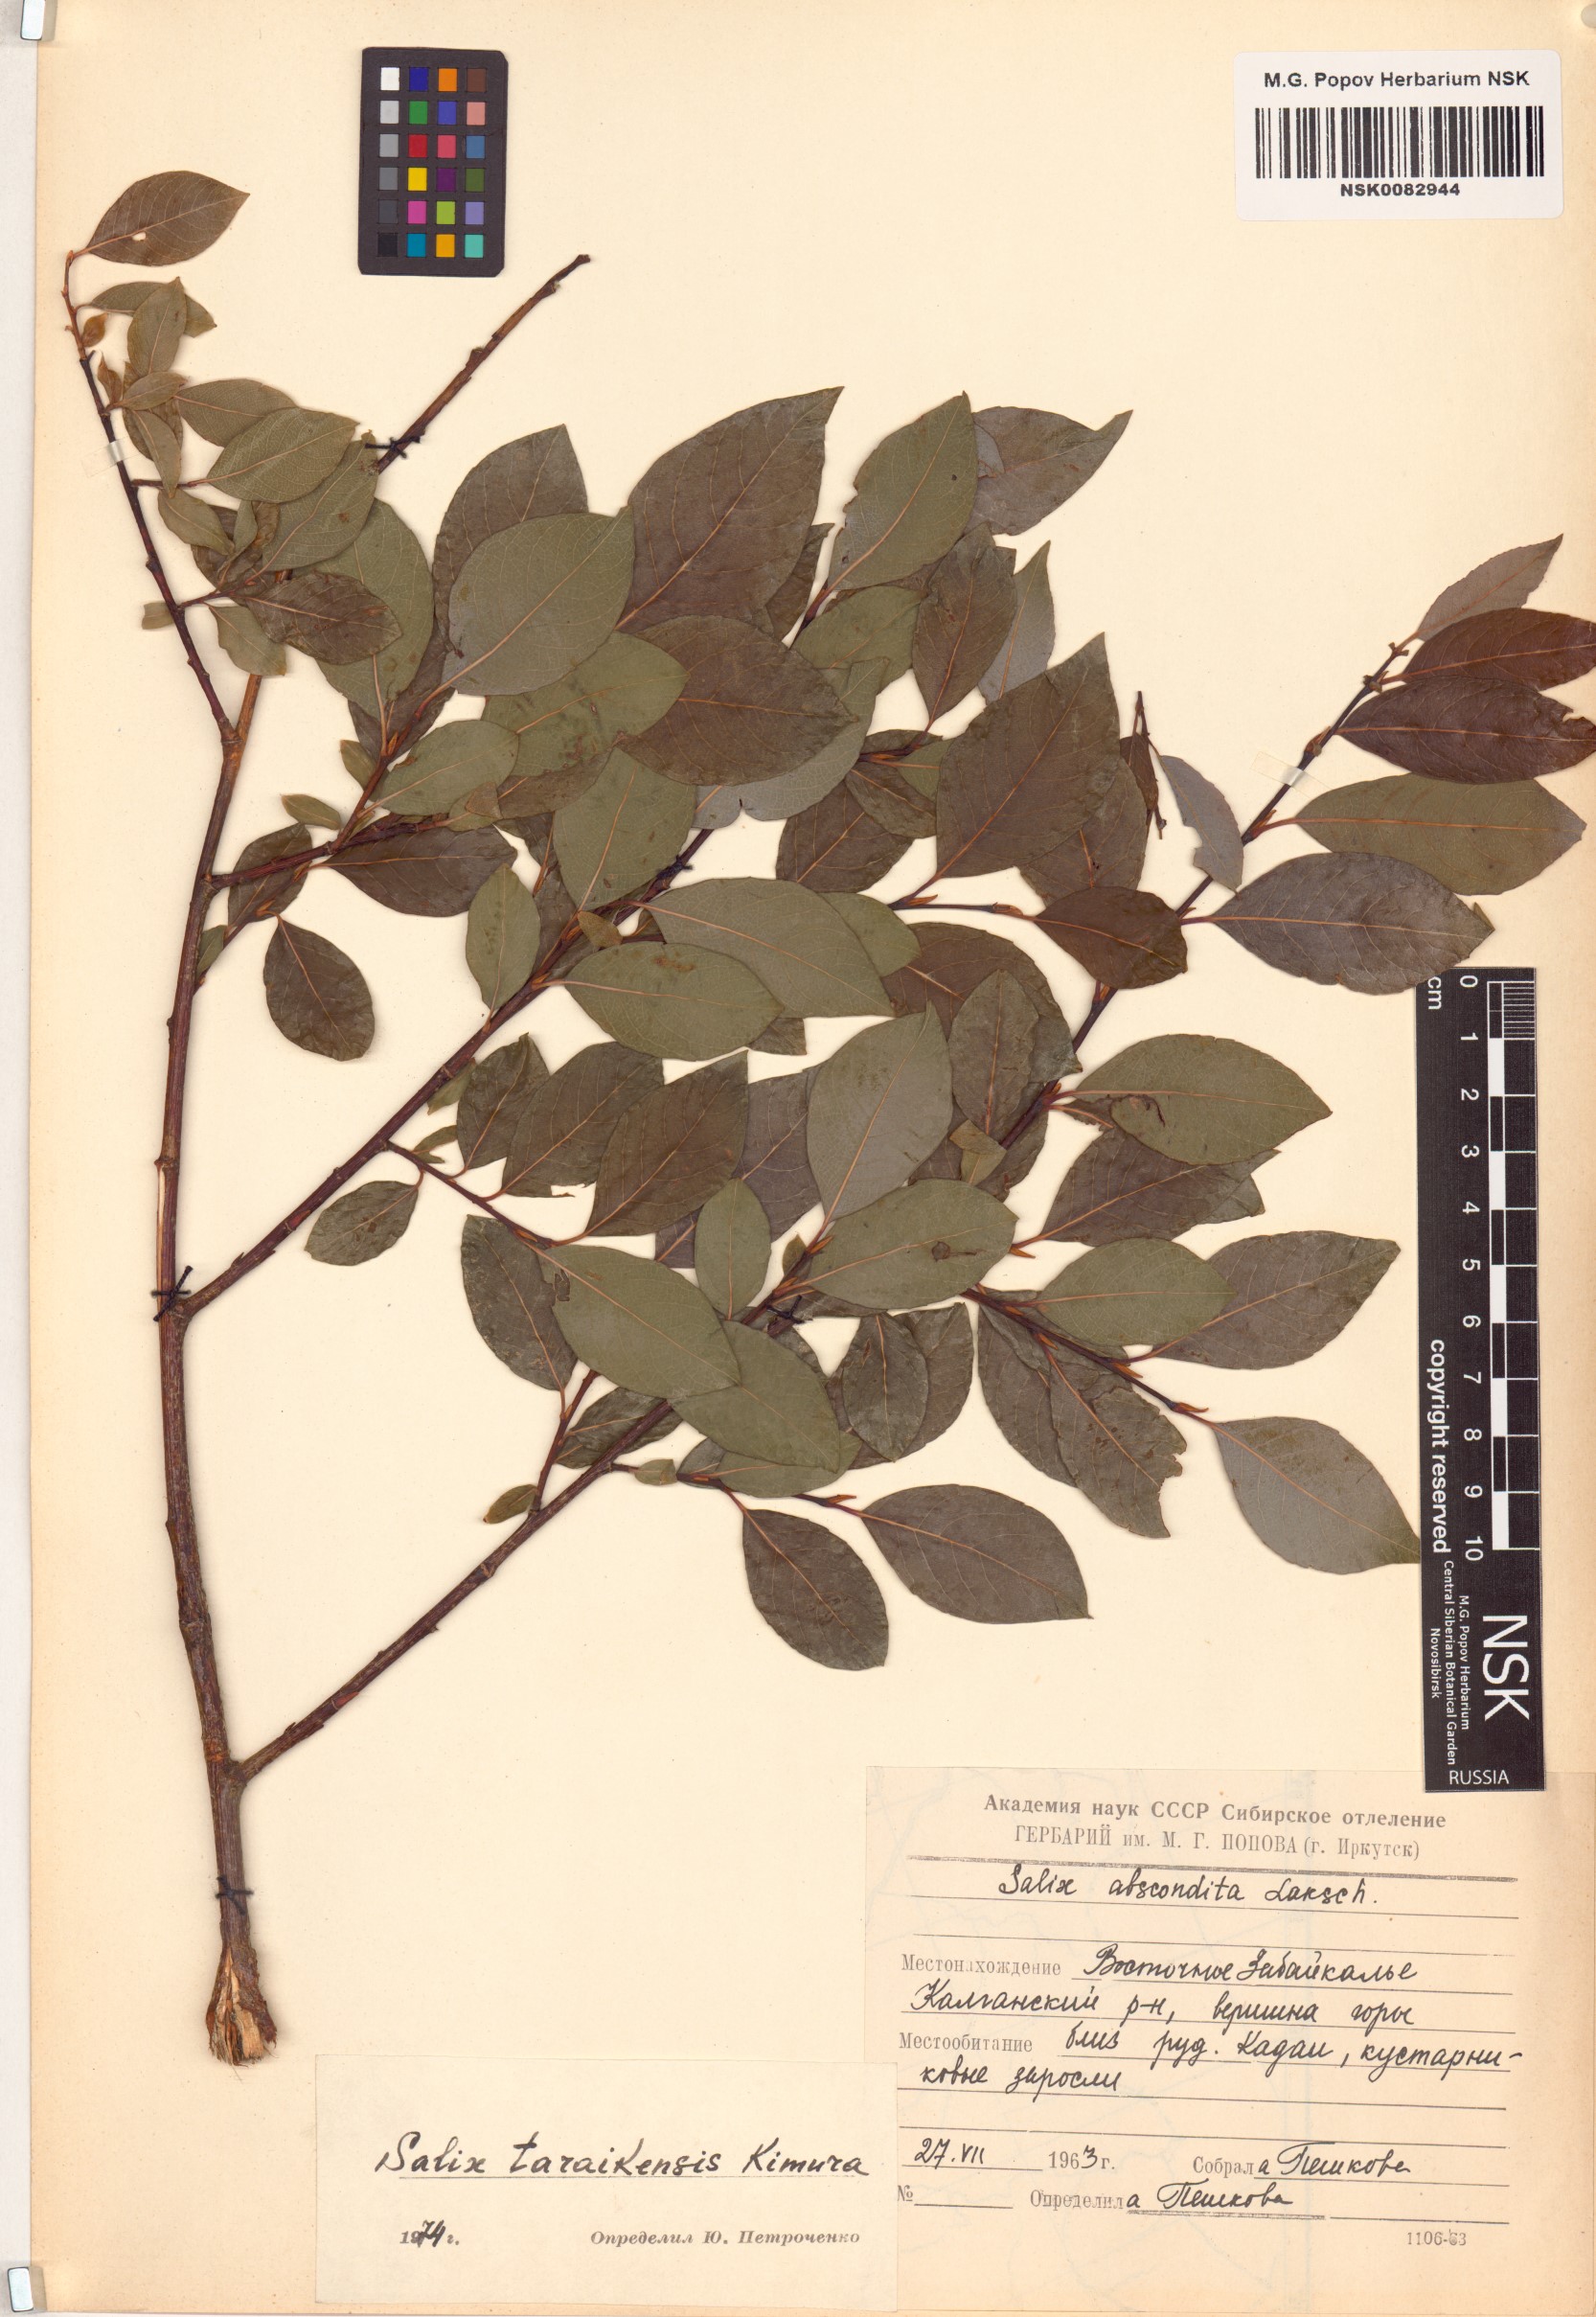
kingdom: Plantae
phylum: Tracheophyta
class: Magnoliopsida
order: Malpighiales
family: Salicaceae
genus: Salix
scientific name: Salix taraikensis
